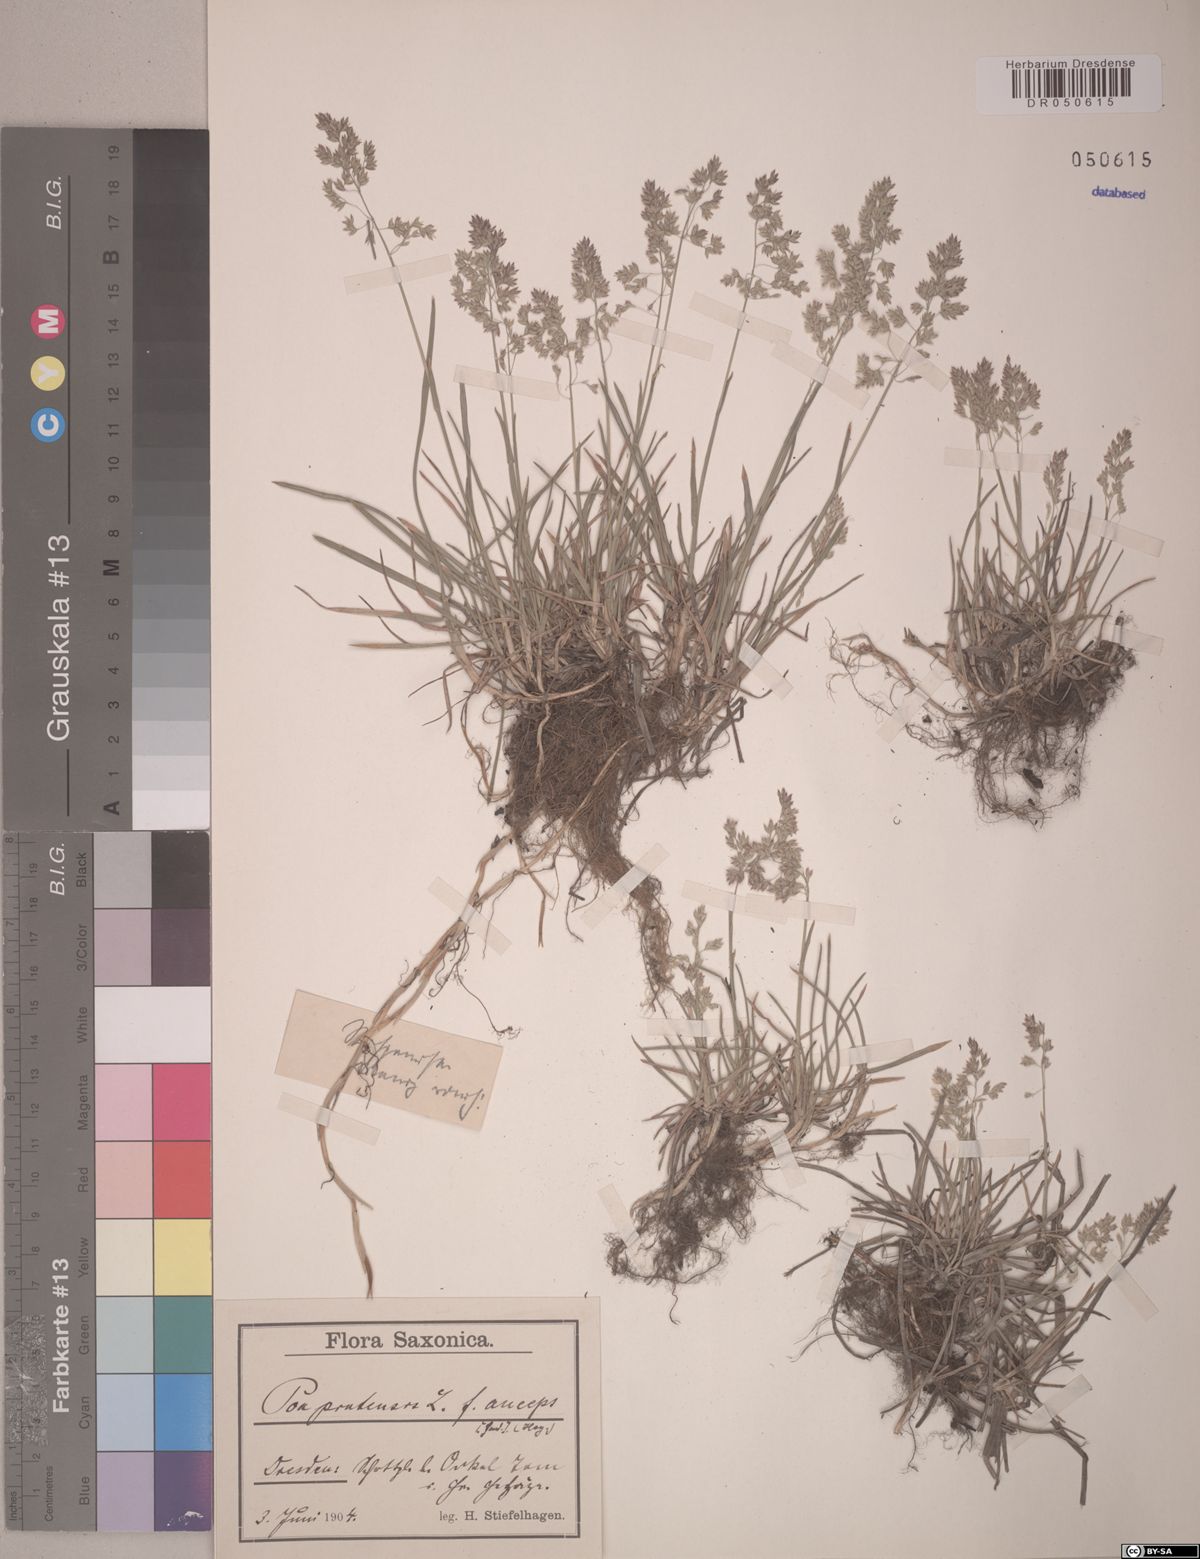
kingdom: Plantae
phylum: Tracheophyta
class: Liliopsida
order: Poales
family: Poaceae
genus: Poa
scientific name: Poa pratensis
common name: Kentucky bluegrass
